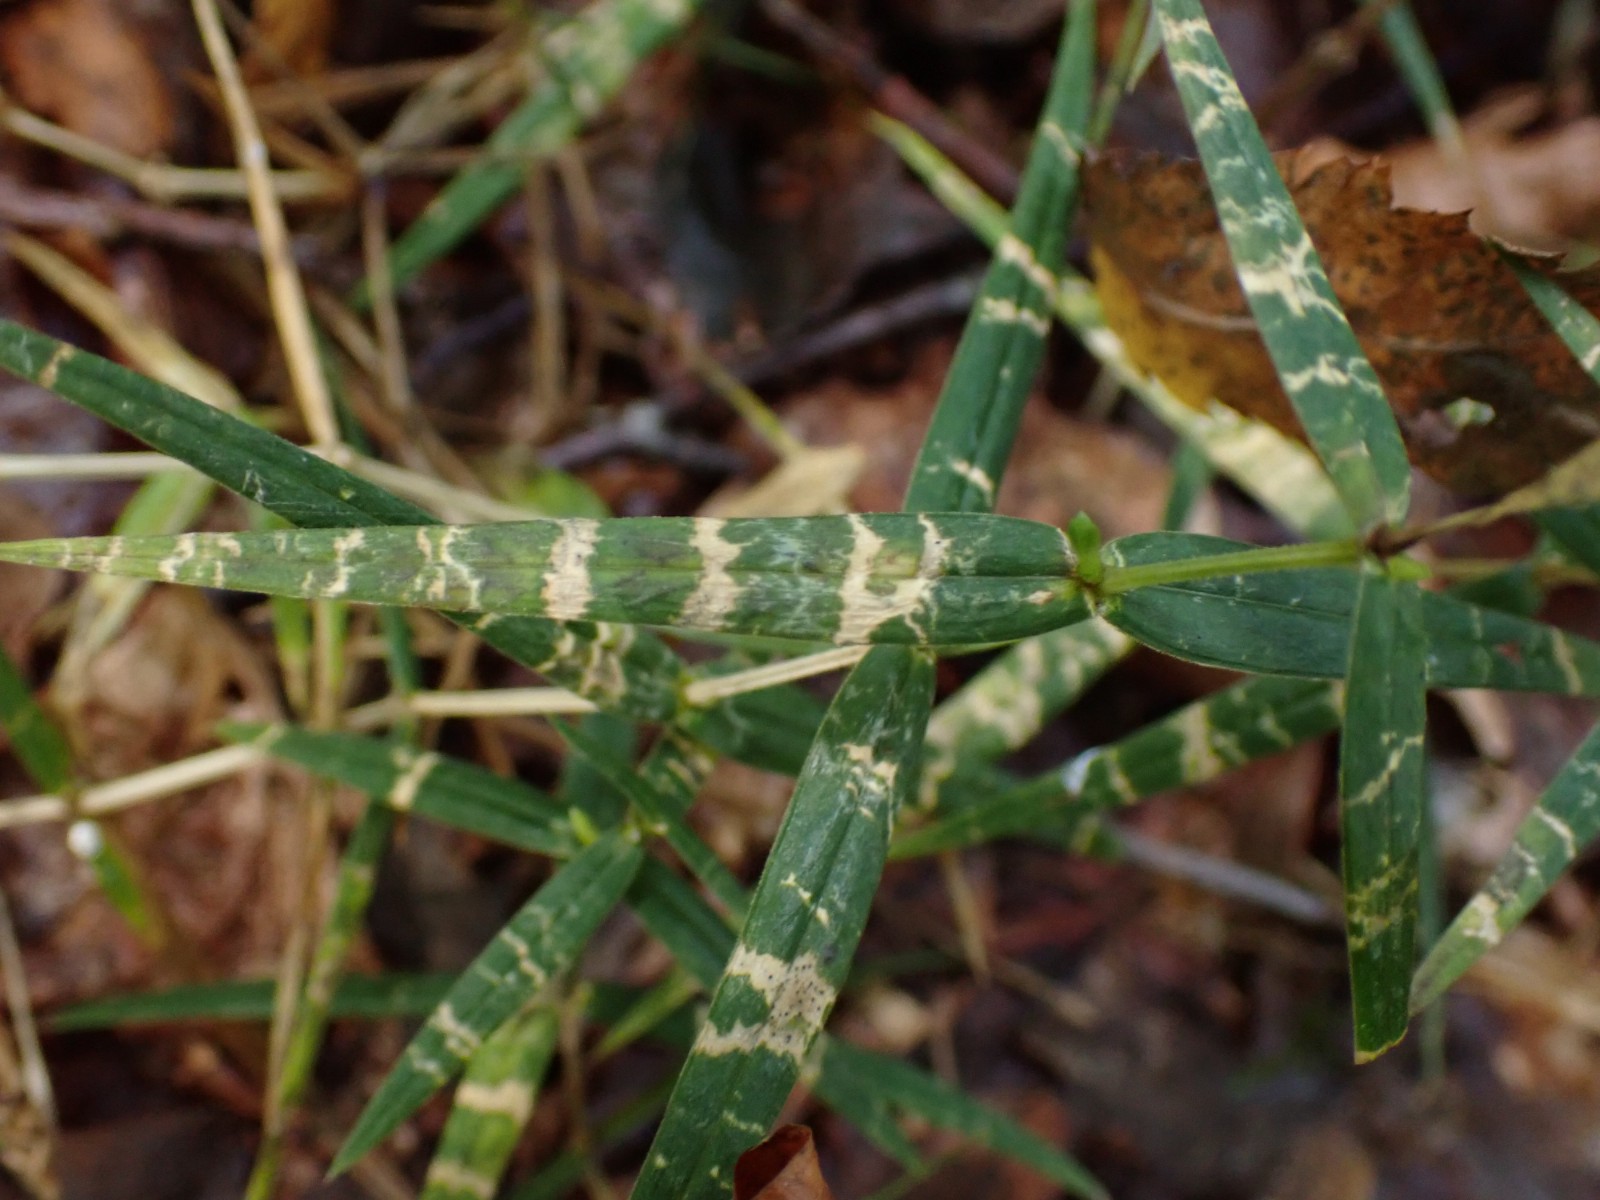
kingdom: Fungi
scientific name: Fungi
